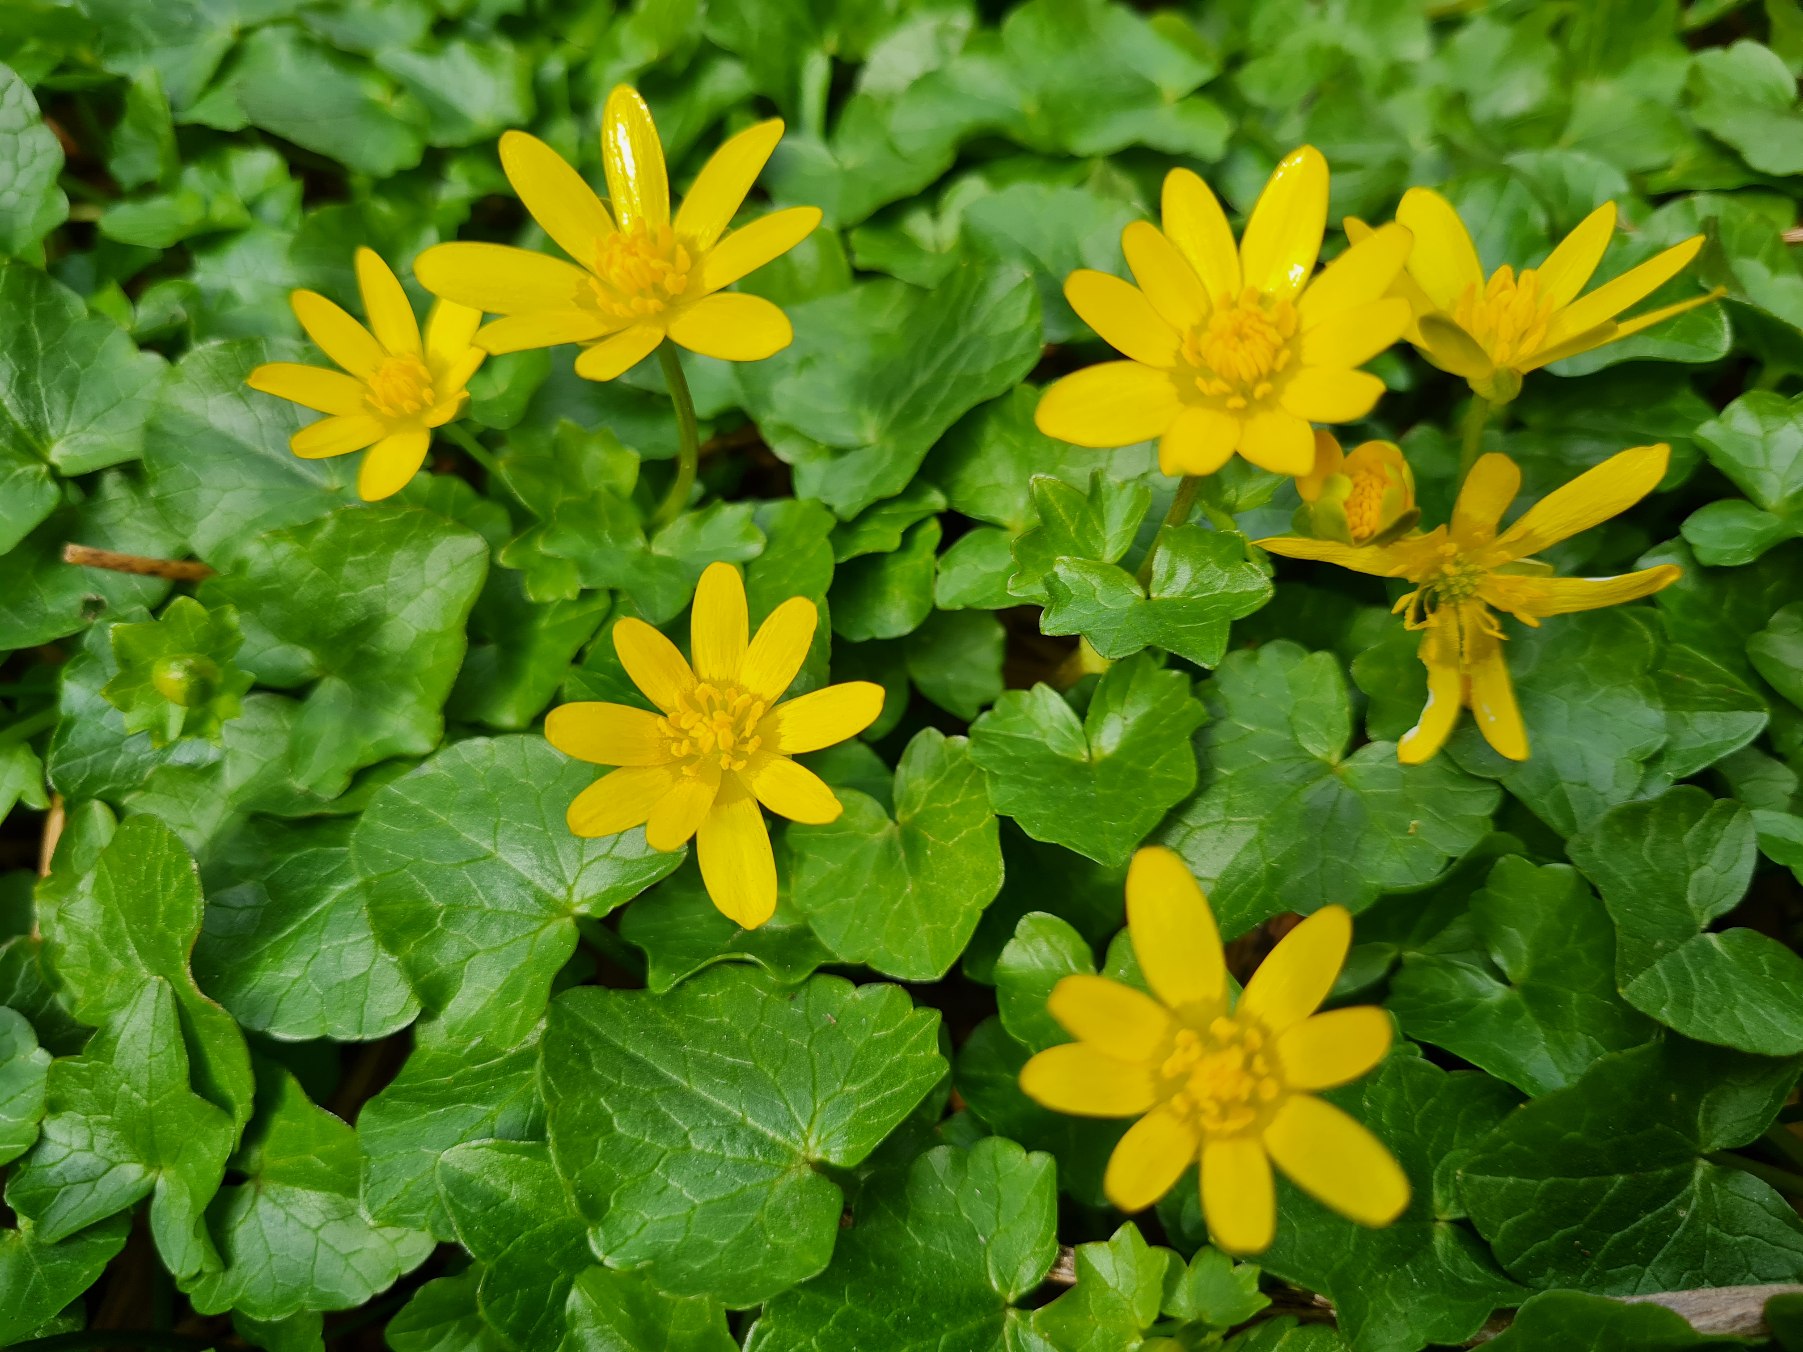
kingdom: Plantae
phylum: Tracheophyta
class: Magnoliopsida
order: Ranunculales
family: Ranunculaceae
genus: Ficaria
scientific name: Ficaria verna
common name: Vorterod
